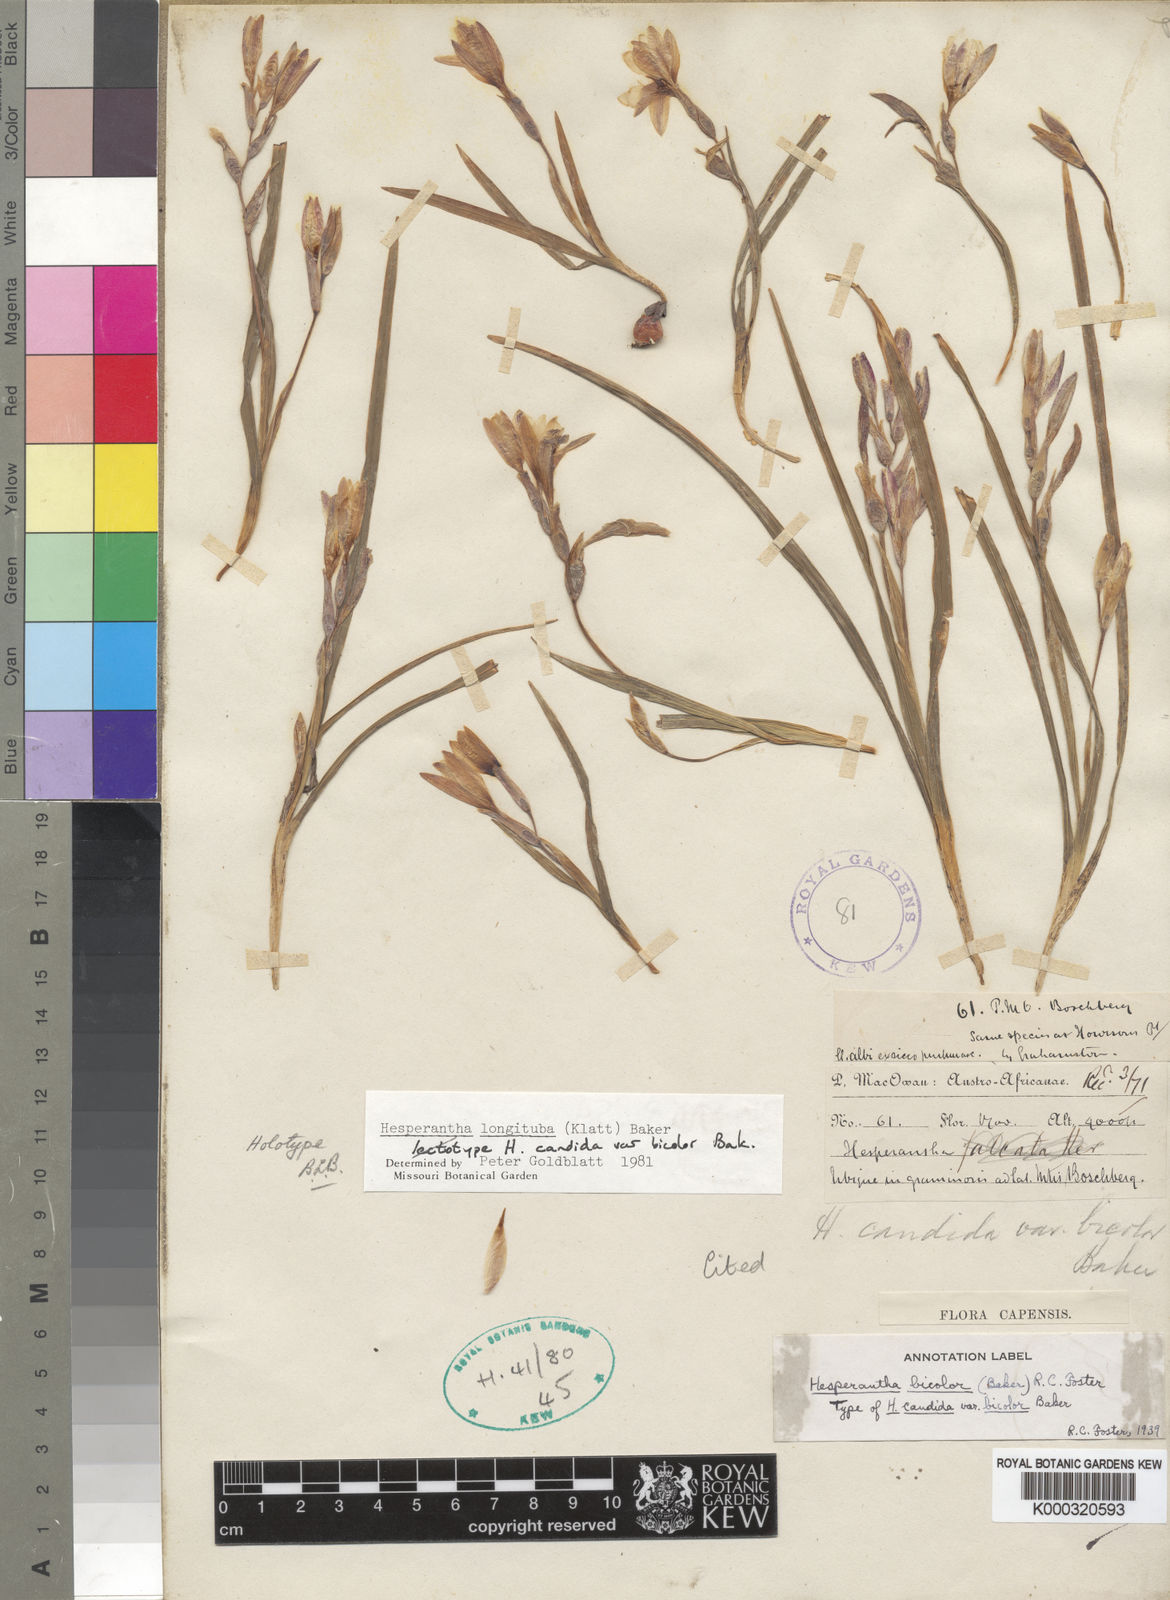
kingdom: Plantae
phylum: Tracheophyta
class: Liliopsida
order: Asparagales
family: Iridaceae
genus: Hesperantha
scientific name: Hesperantha longituba
